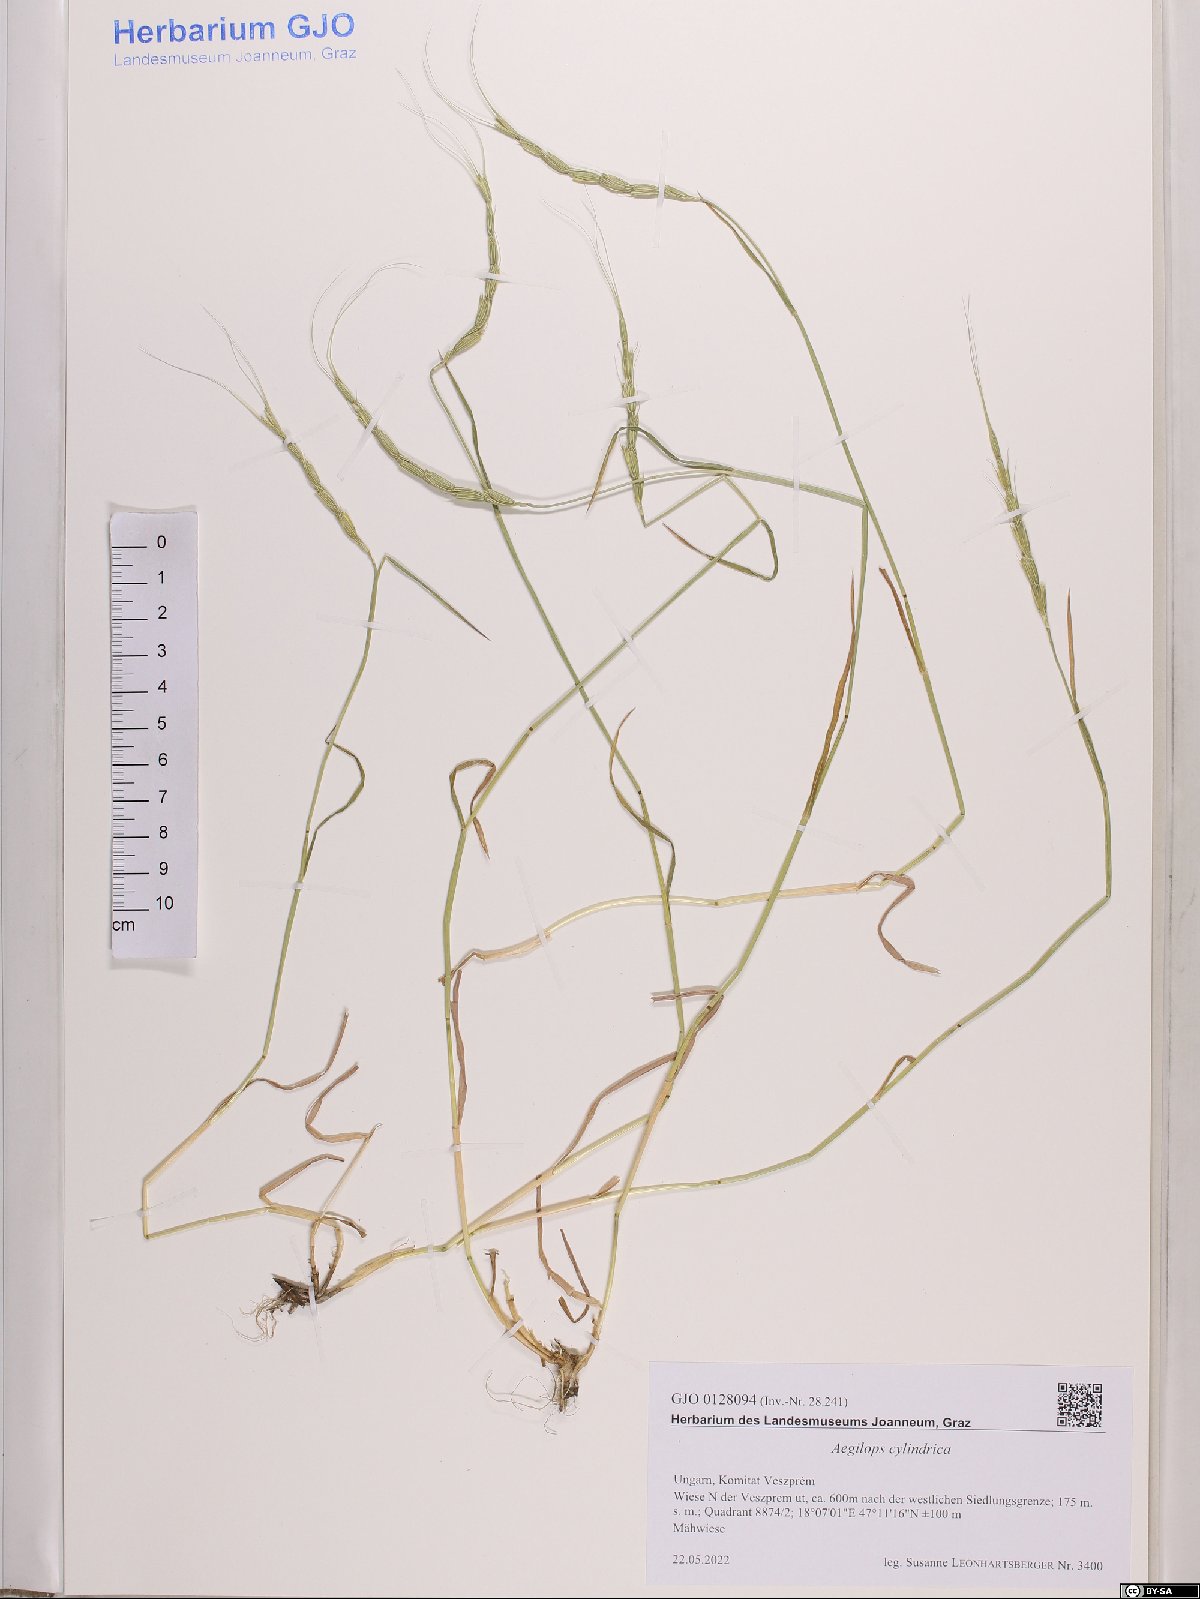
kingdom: Plantae
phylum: Tracheophyta
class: Liliopsida
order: Poales
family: Poaceae
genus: Aegilops
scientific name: Aegilops cylindrica
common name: Jointed goatgrass
